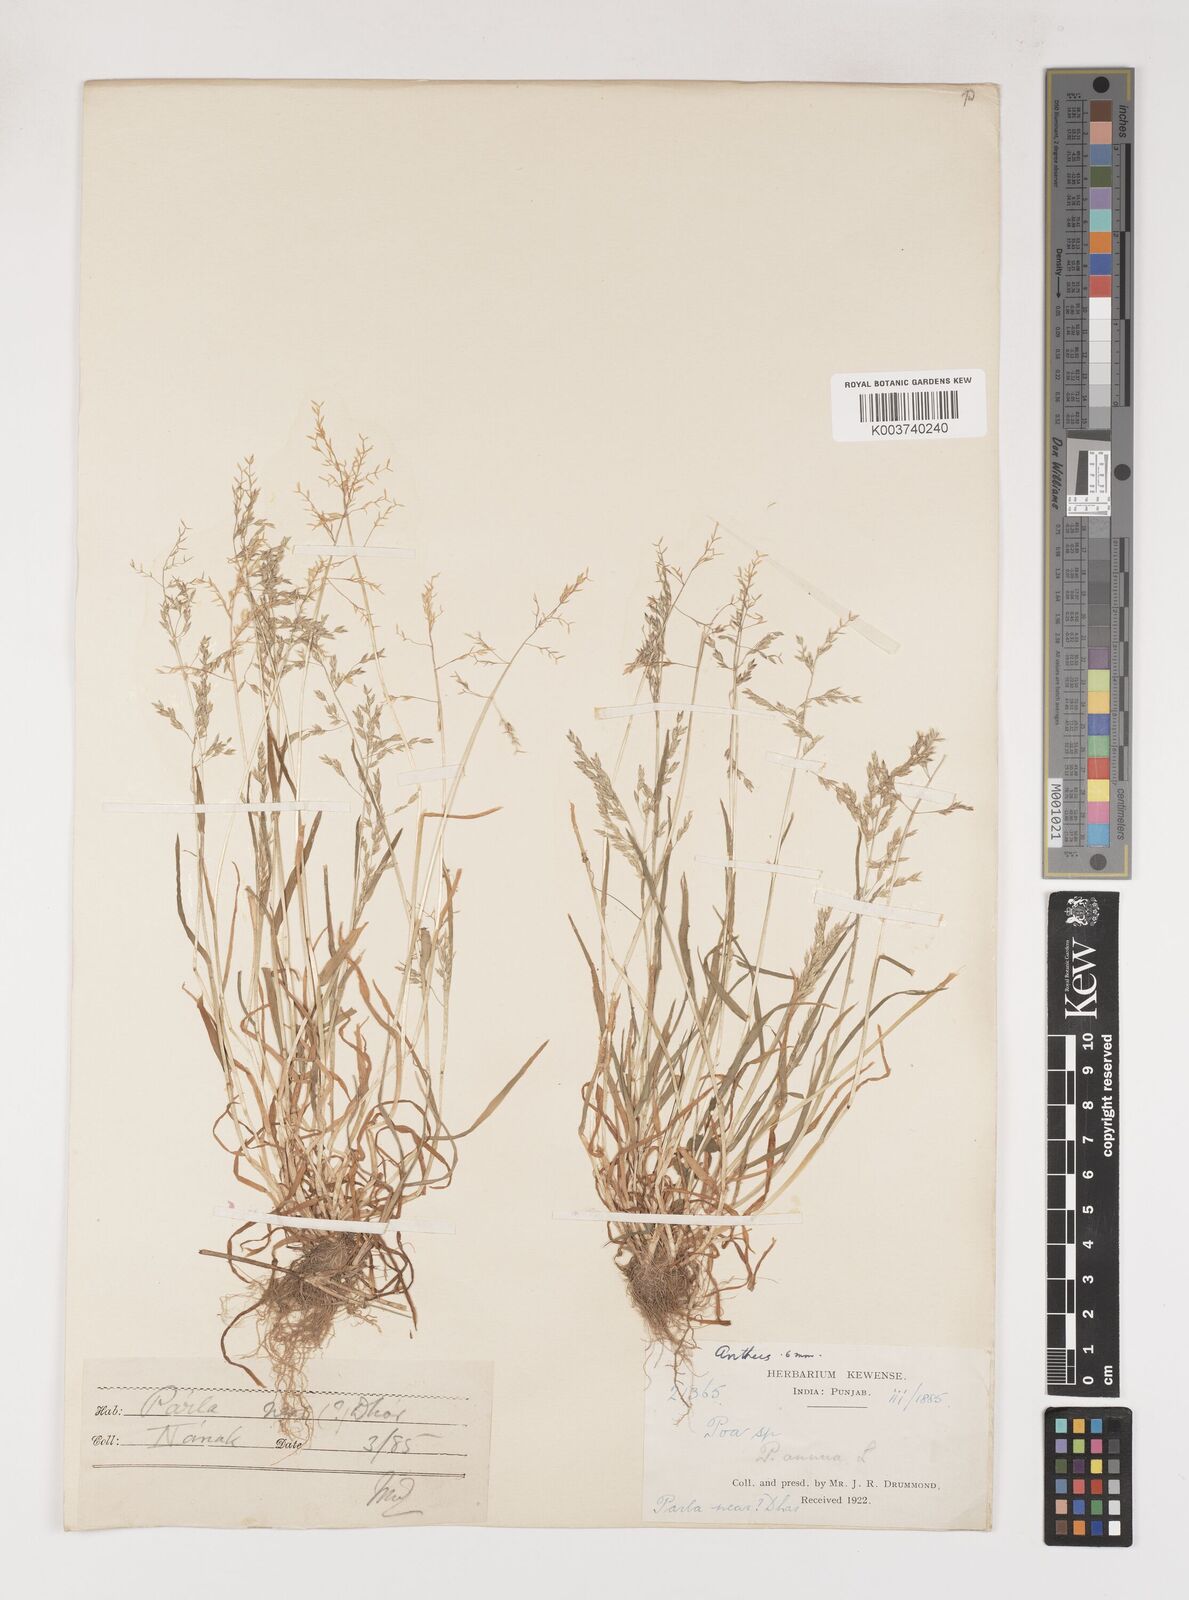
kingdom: Plantae
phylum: Tracheophyta
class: Liliopsida
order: Poales
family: Poaceae
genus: Poa
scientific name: Poa annua
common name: Annual bluegrass
